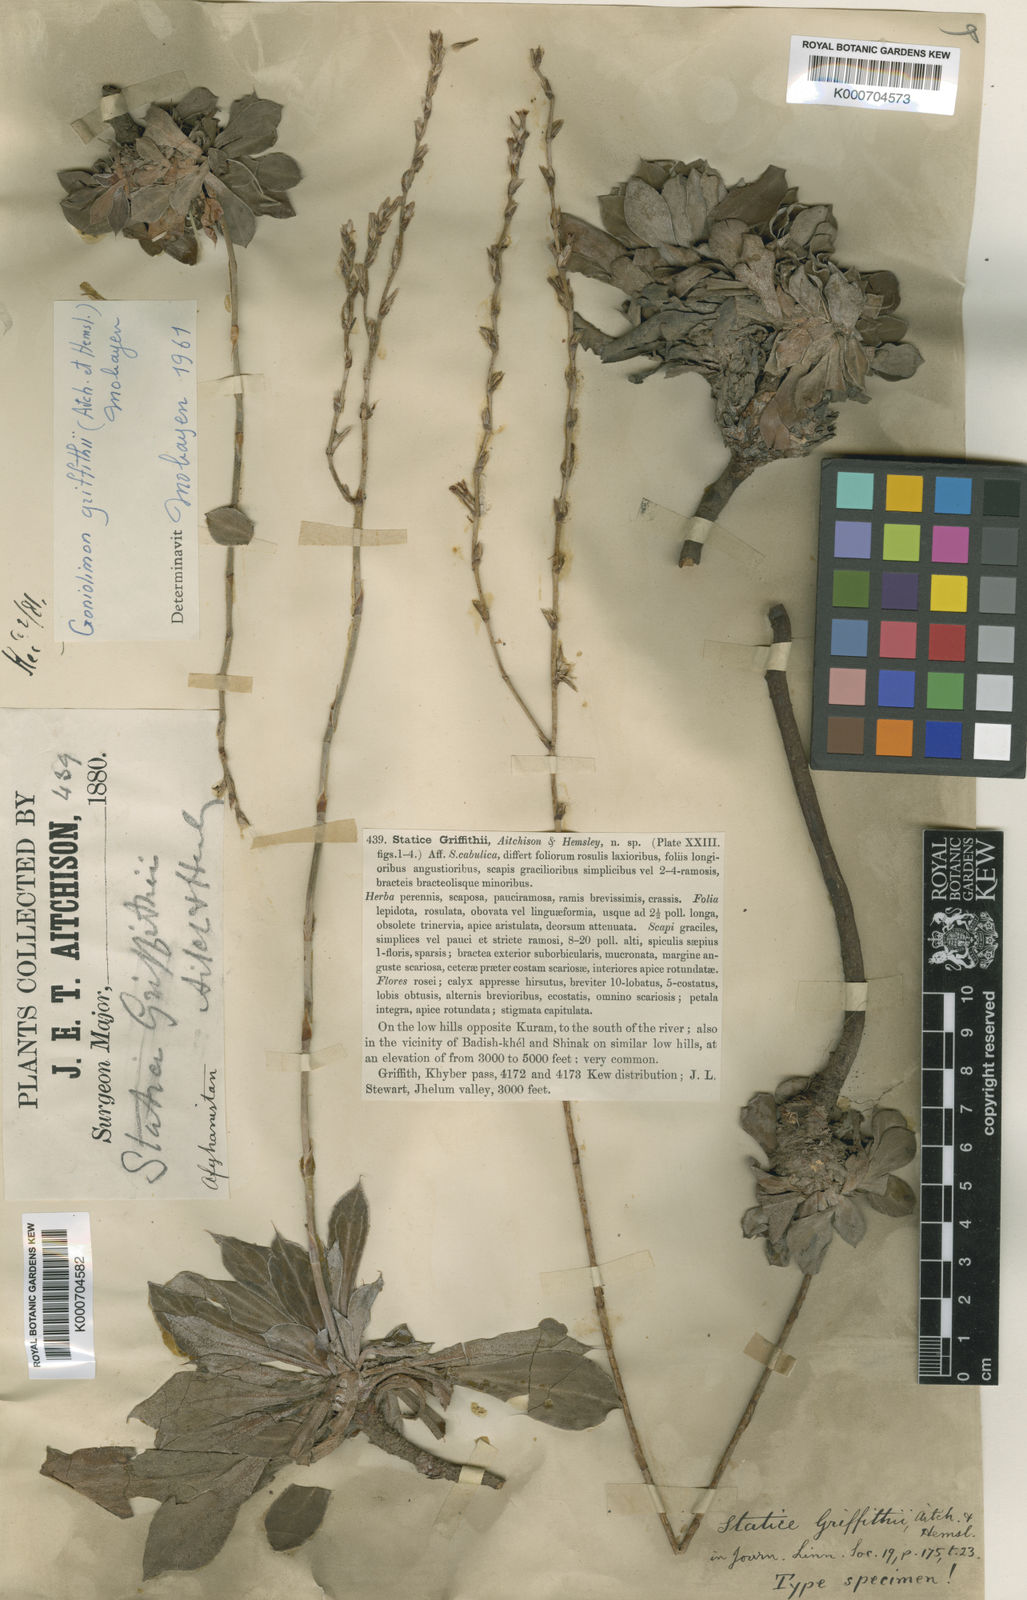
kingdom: Plantae
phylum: Tracheophyta
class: Magnoliopsida
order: Caryophyllales
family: Plumbaginaceae
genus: Dictyolimon
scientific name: Dictyolimon griffithii
